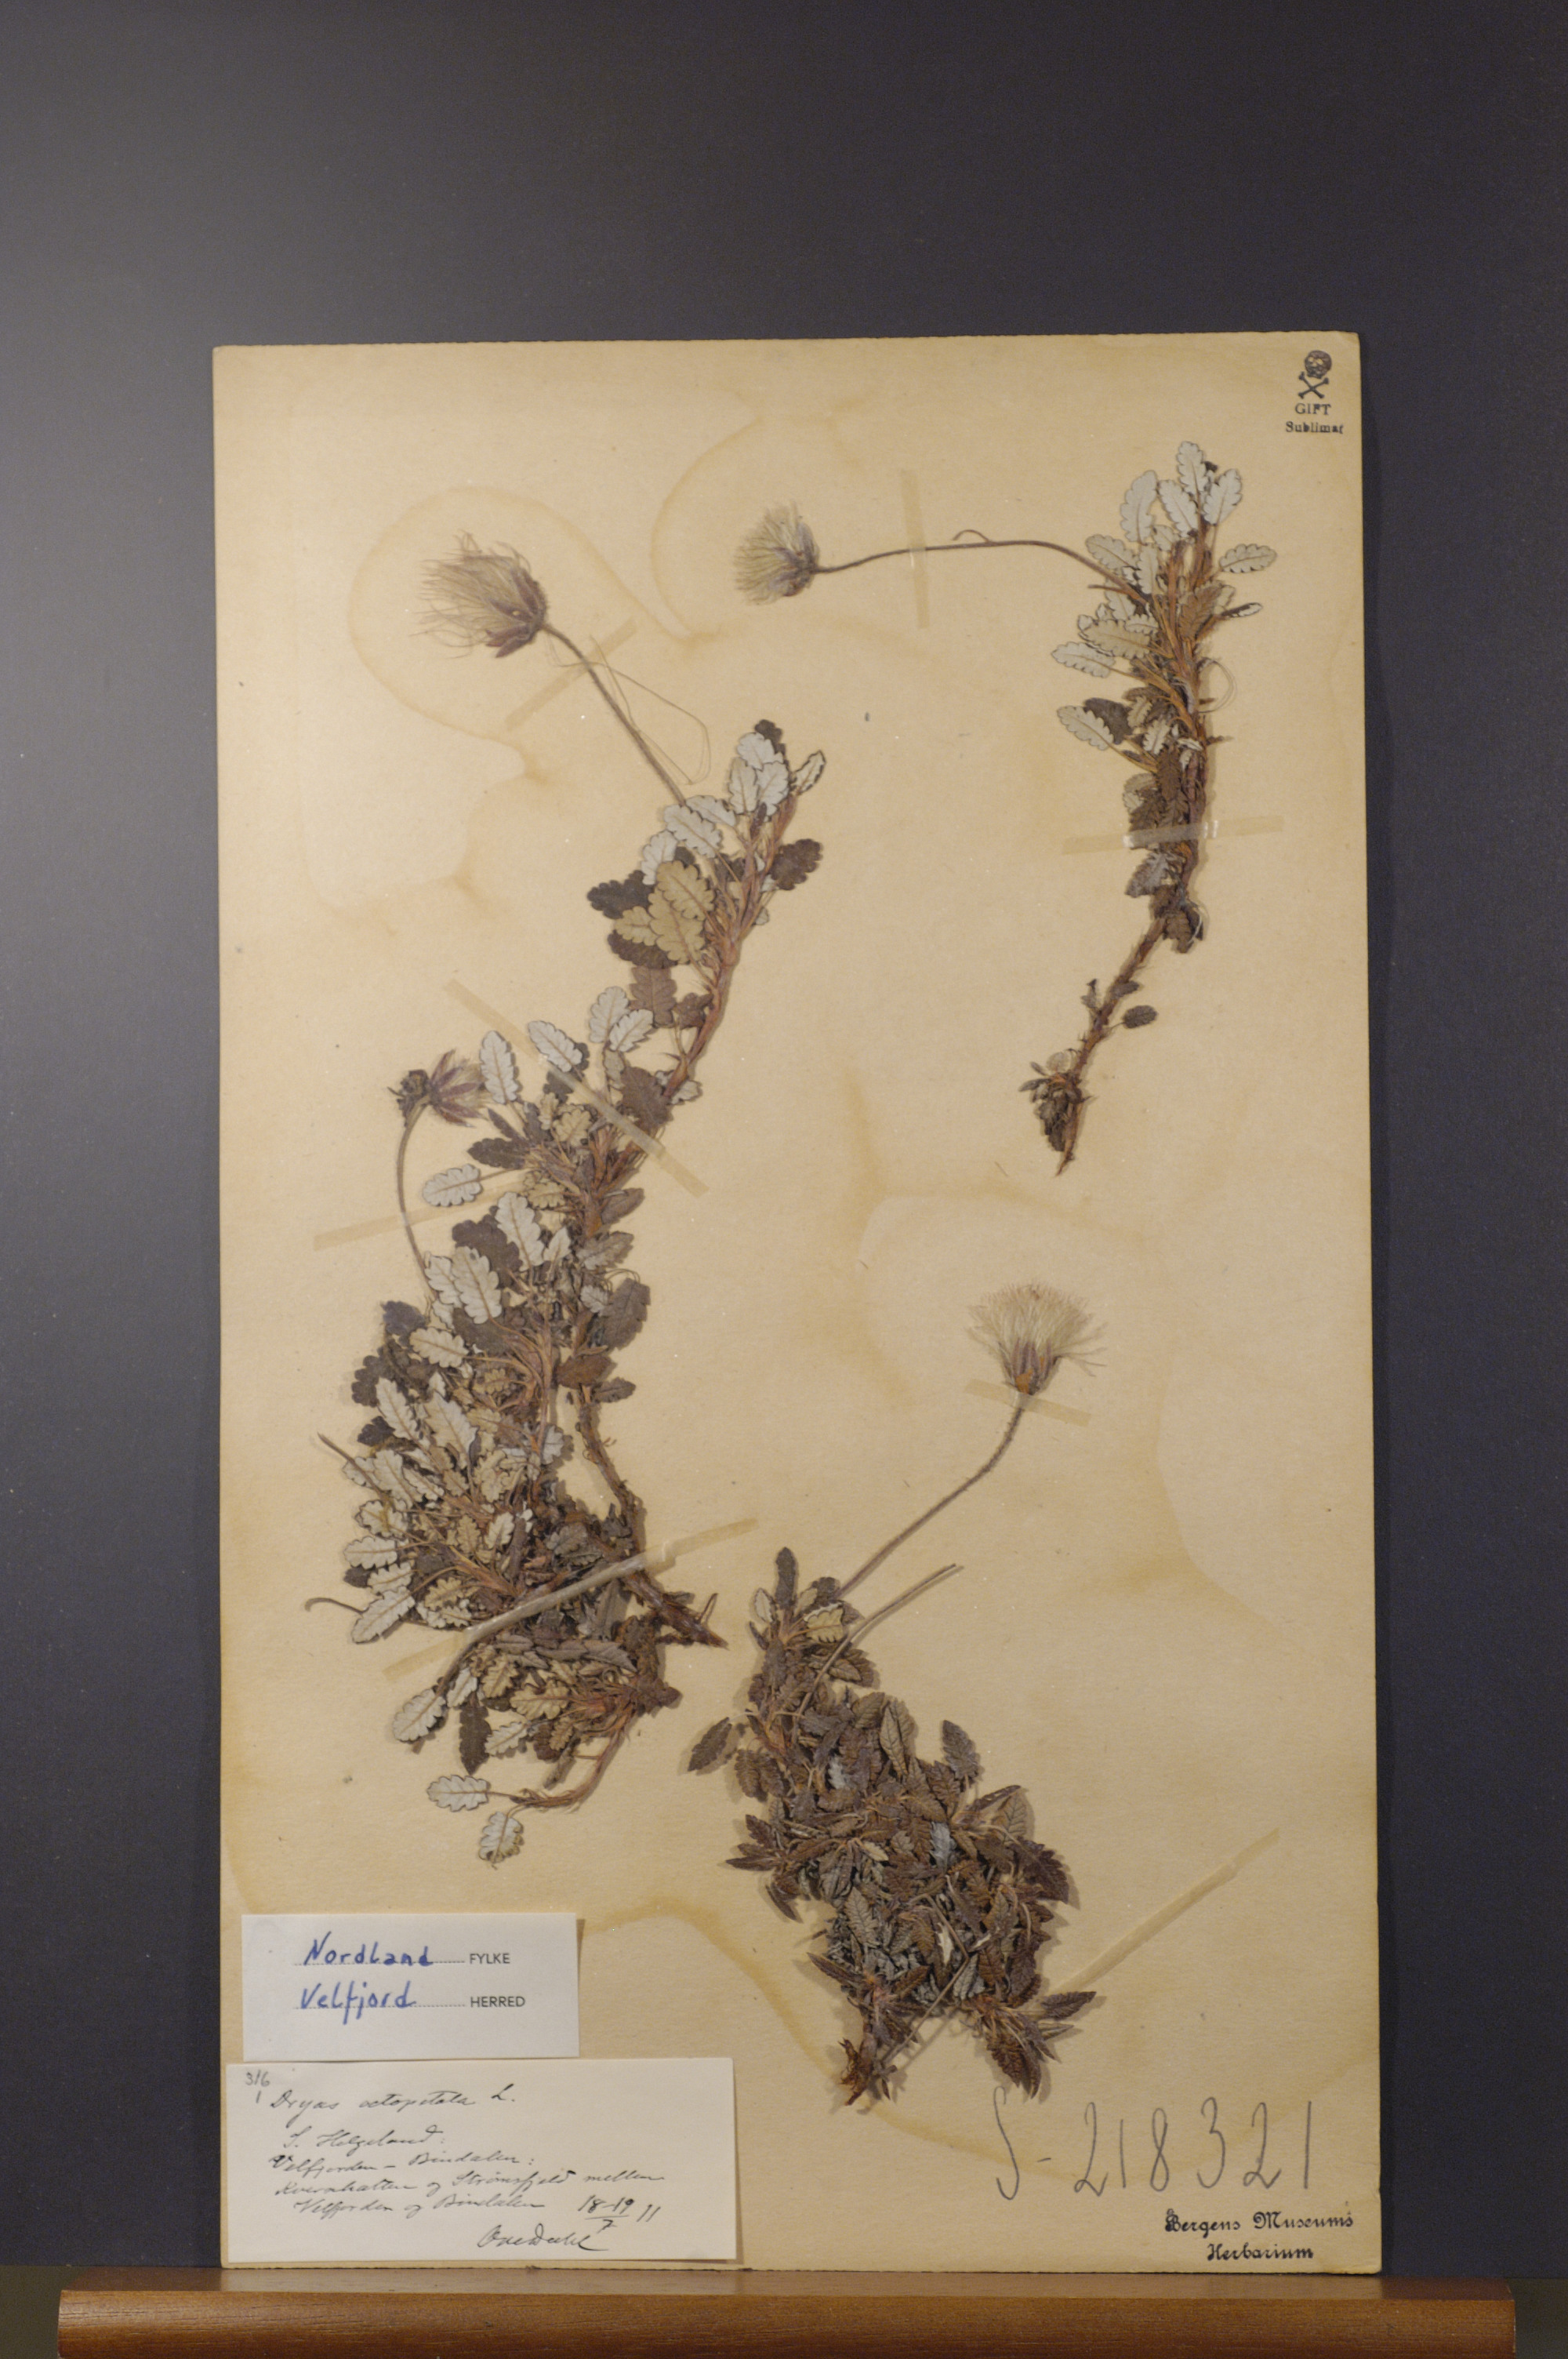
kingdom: Plantae
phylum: Tracheophyta
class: Magnoliopsida
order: Rosales
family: Rosaceae
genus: Dryas
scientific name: Dryas octopetala
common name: Eight-petal mountain-avens
